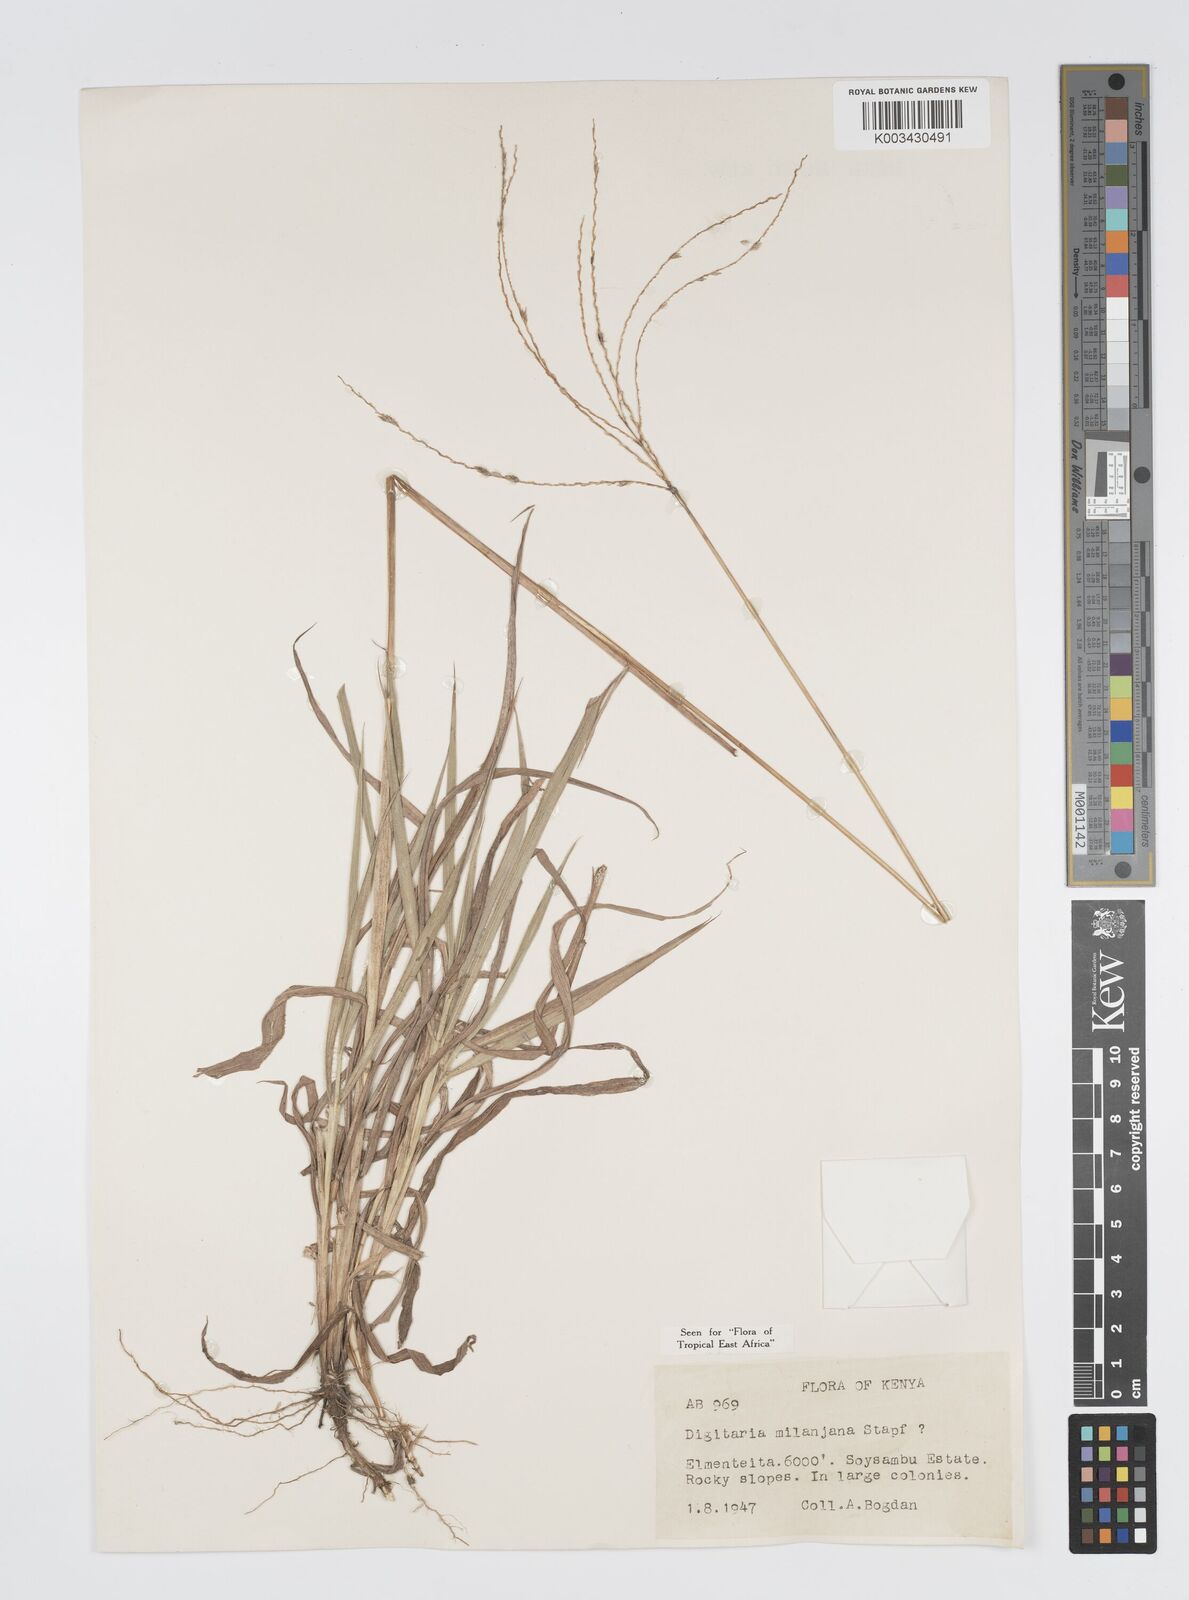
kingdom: Plantae
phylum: Tracheophyta
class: Liliopsida
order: Poales
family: Poaceae
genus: Digitaria
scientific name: Digitaria milanjiana
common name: Madagascar crabgrass
